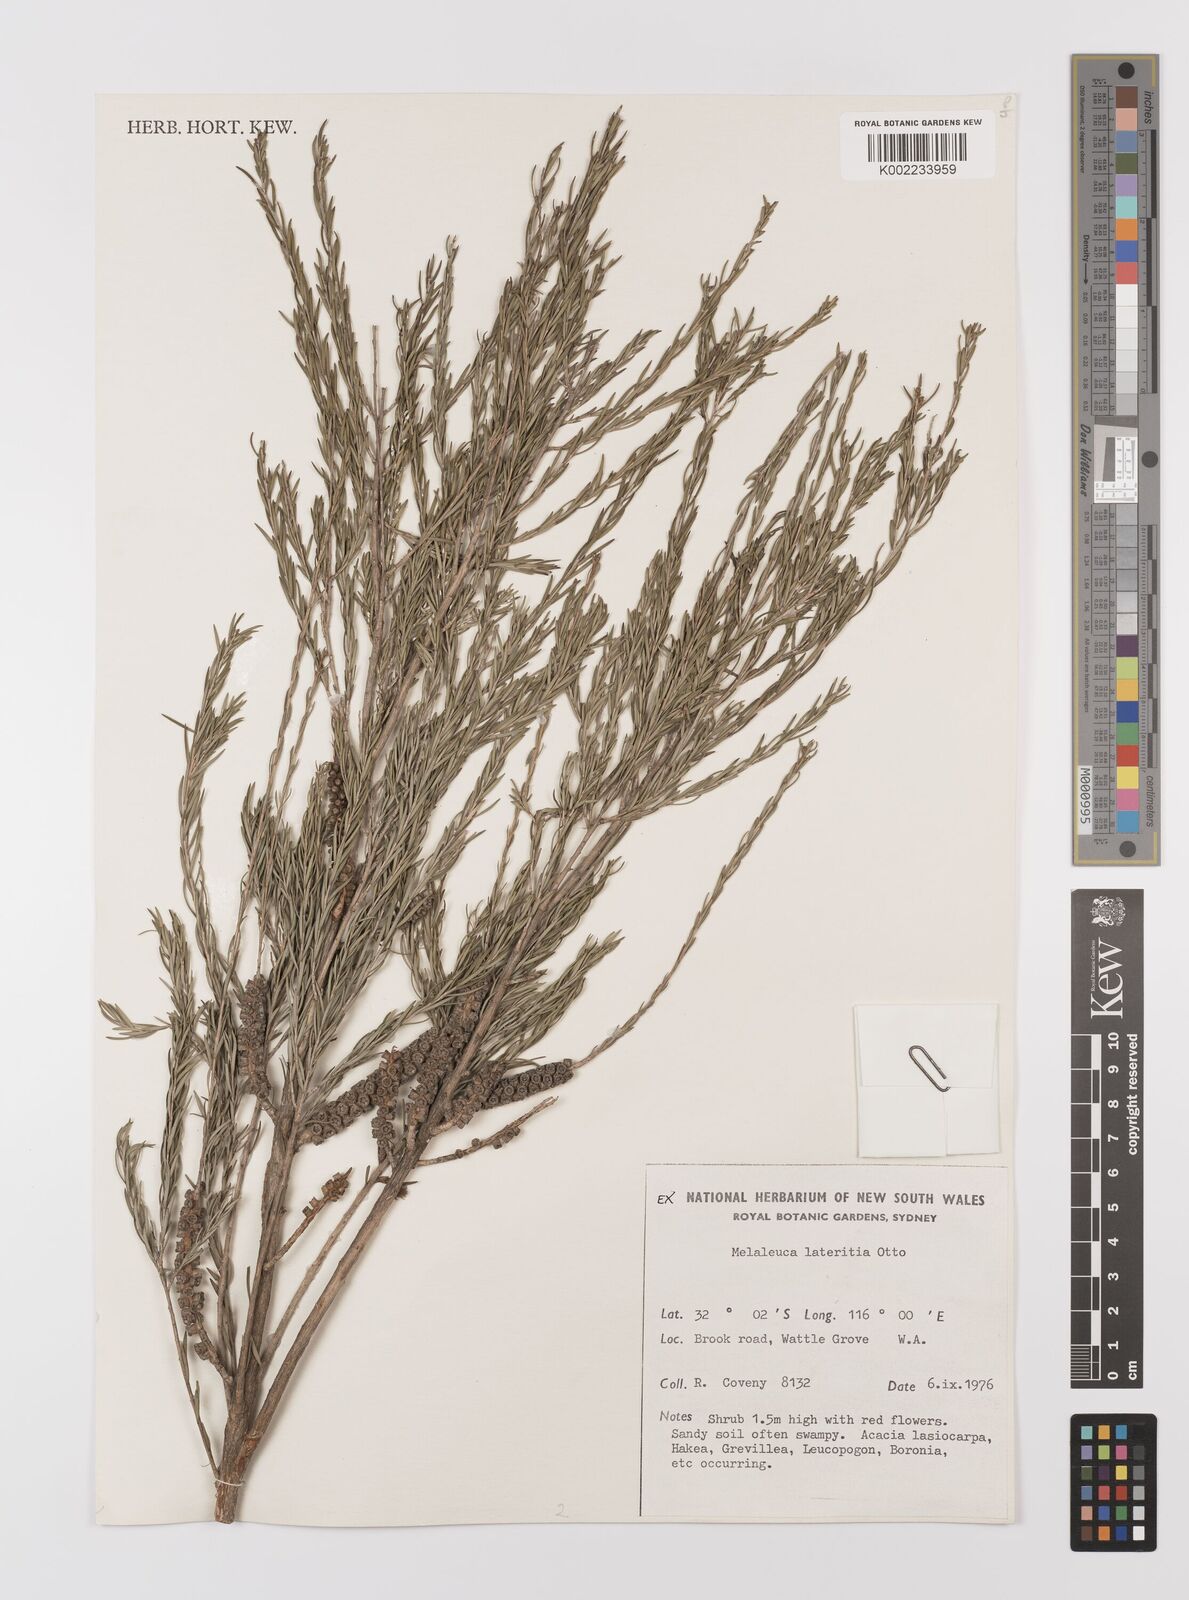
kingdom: Plantae
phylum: Tracheophyta
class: Magnoliopsida
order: Myrtales
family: Myrtaceae
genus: Melaleuca
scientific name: Melaleuca lateritia
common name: Robin red-breast
